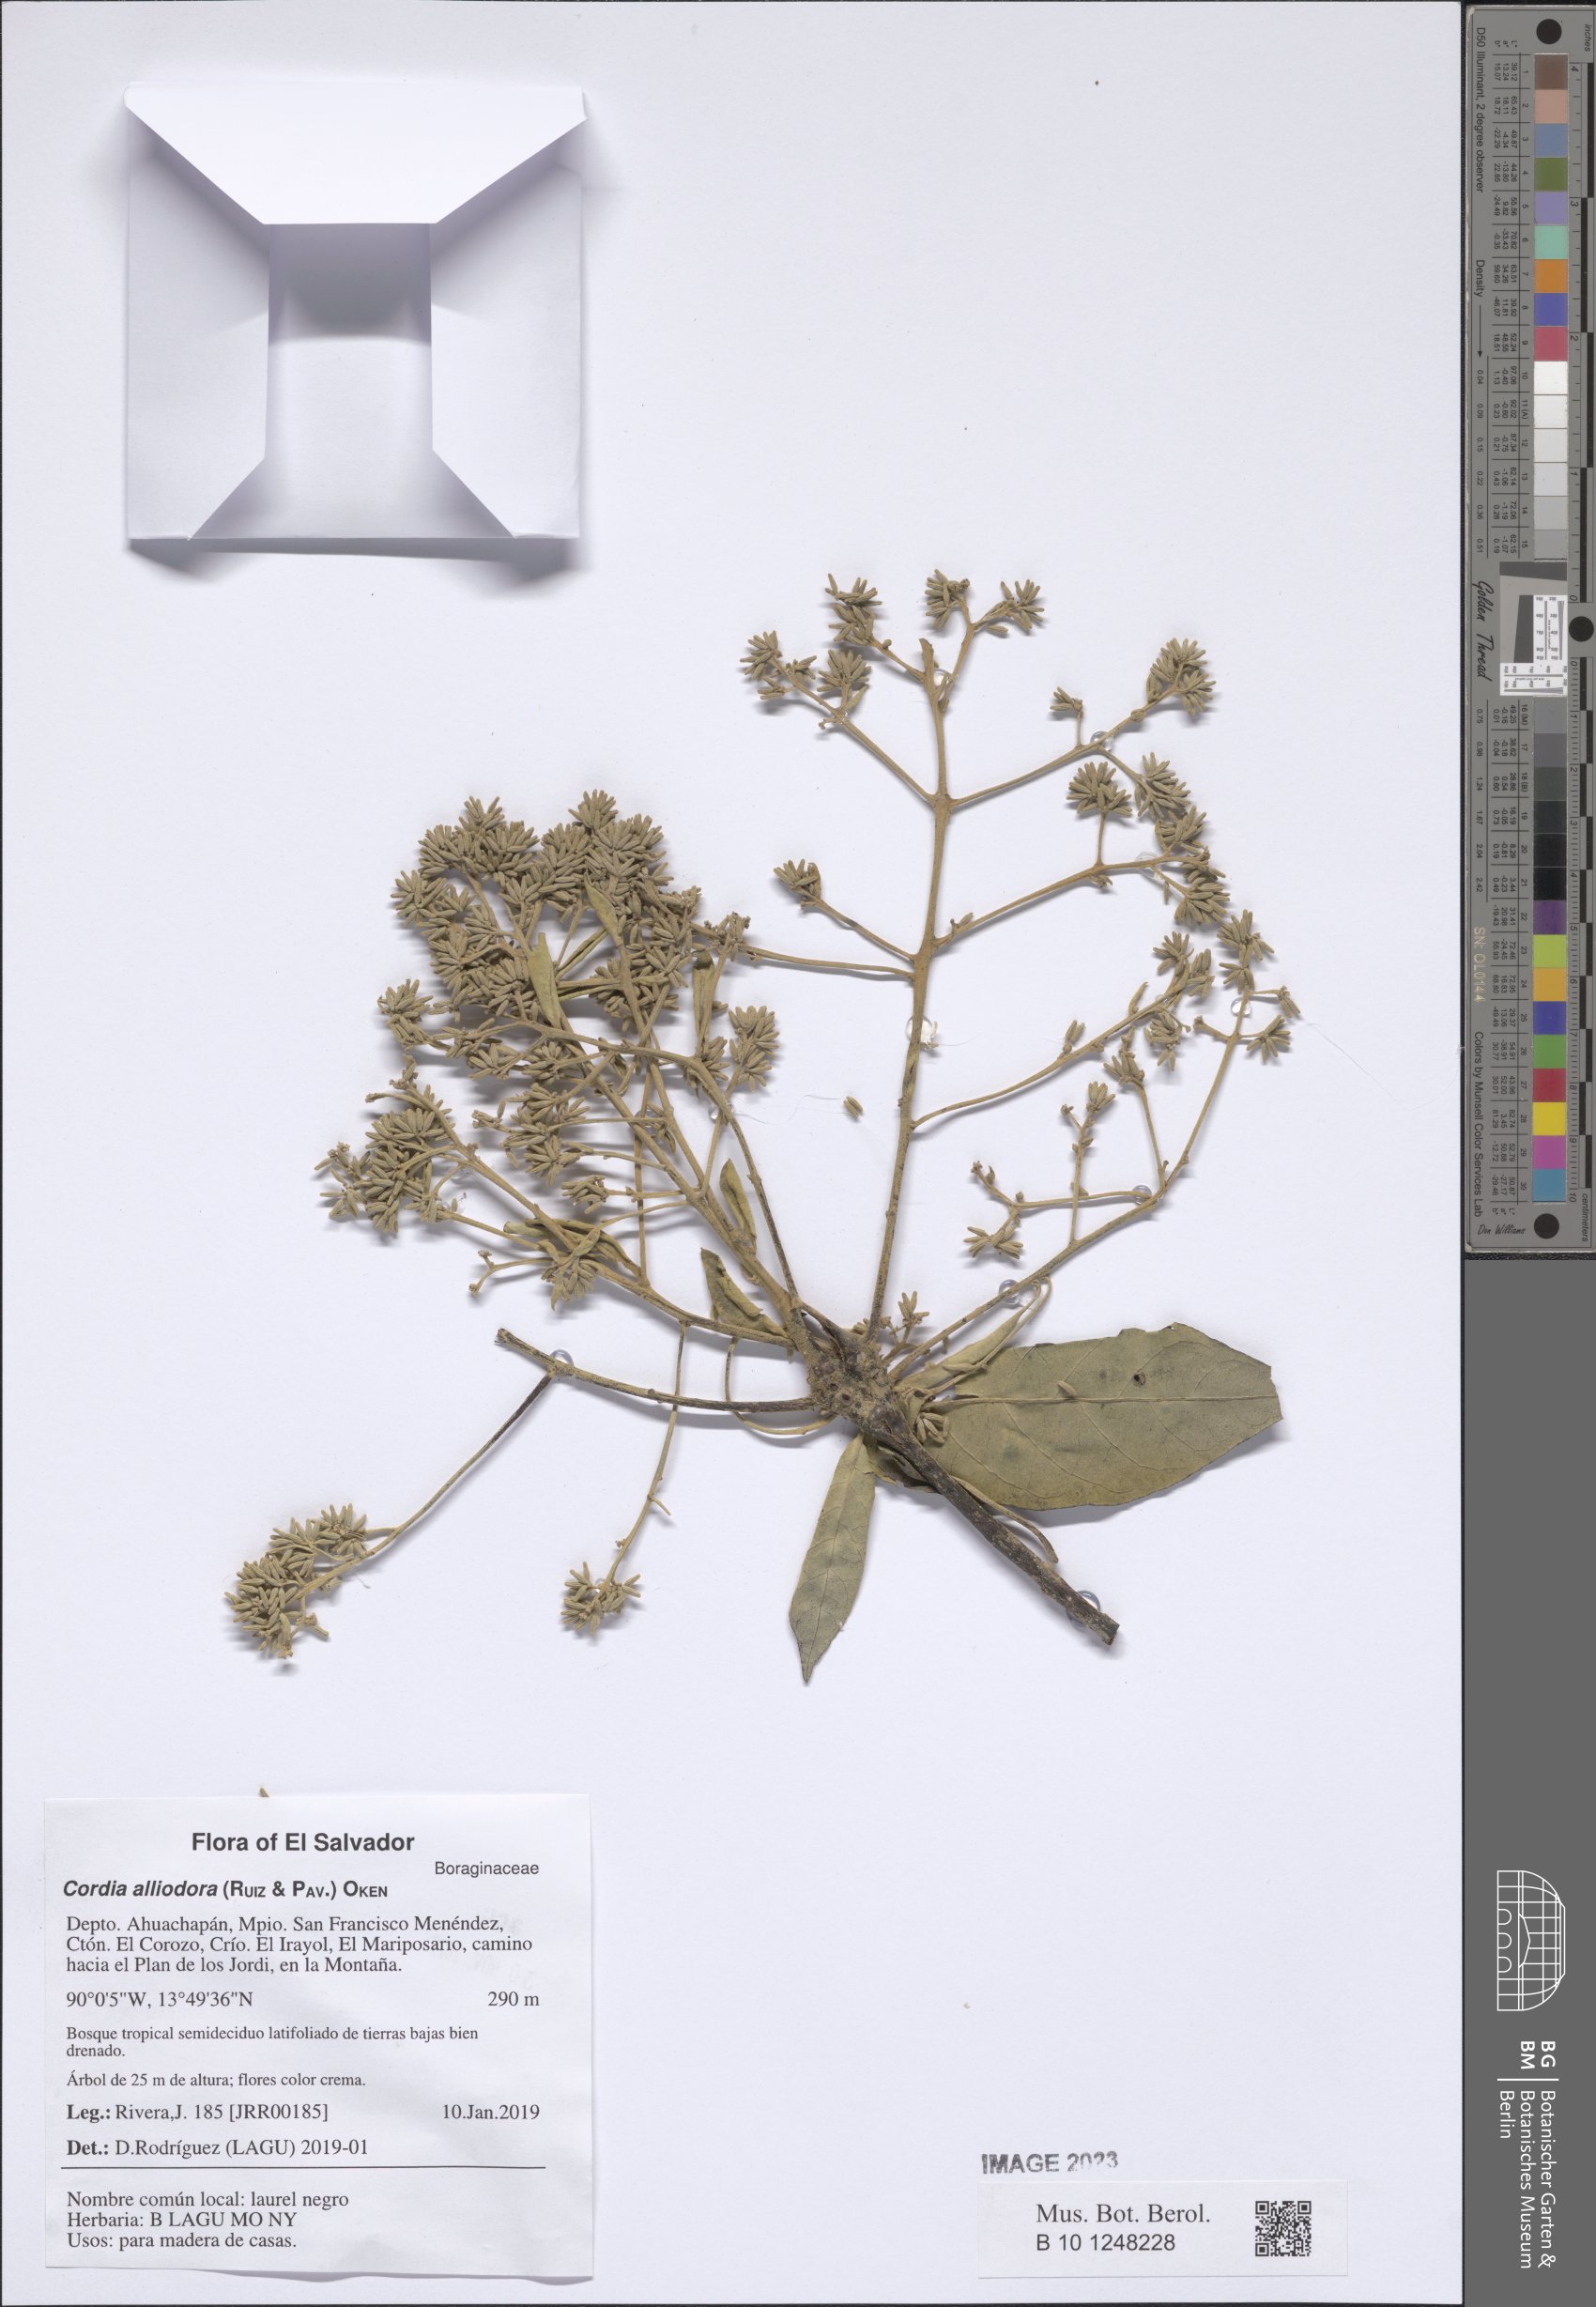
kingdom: Plantae
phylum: Tracheophyta
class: Magnoliopsida
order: Boraginales
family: Cordiaceae
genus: Cordia
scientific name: Cordia alliodora
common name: Spanish elm
